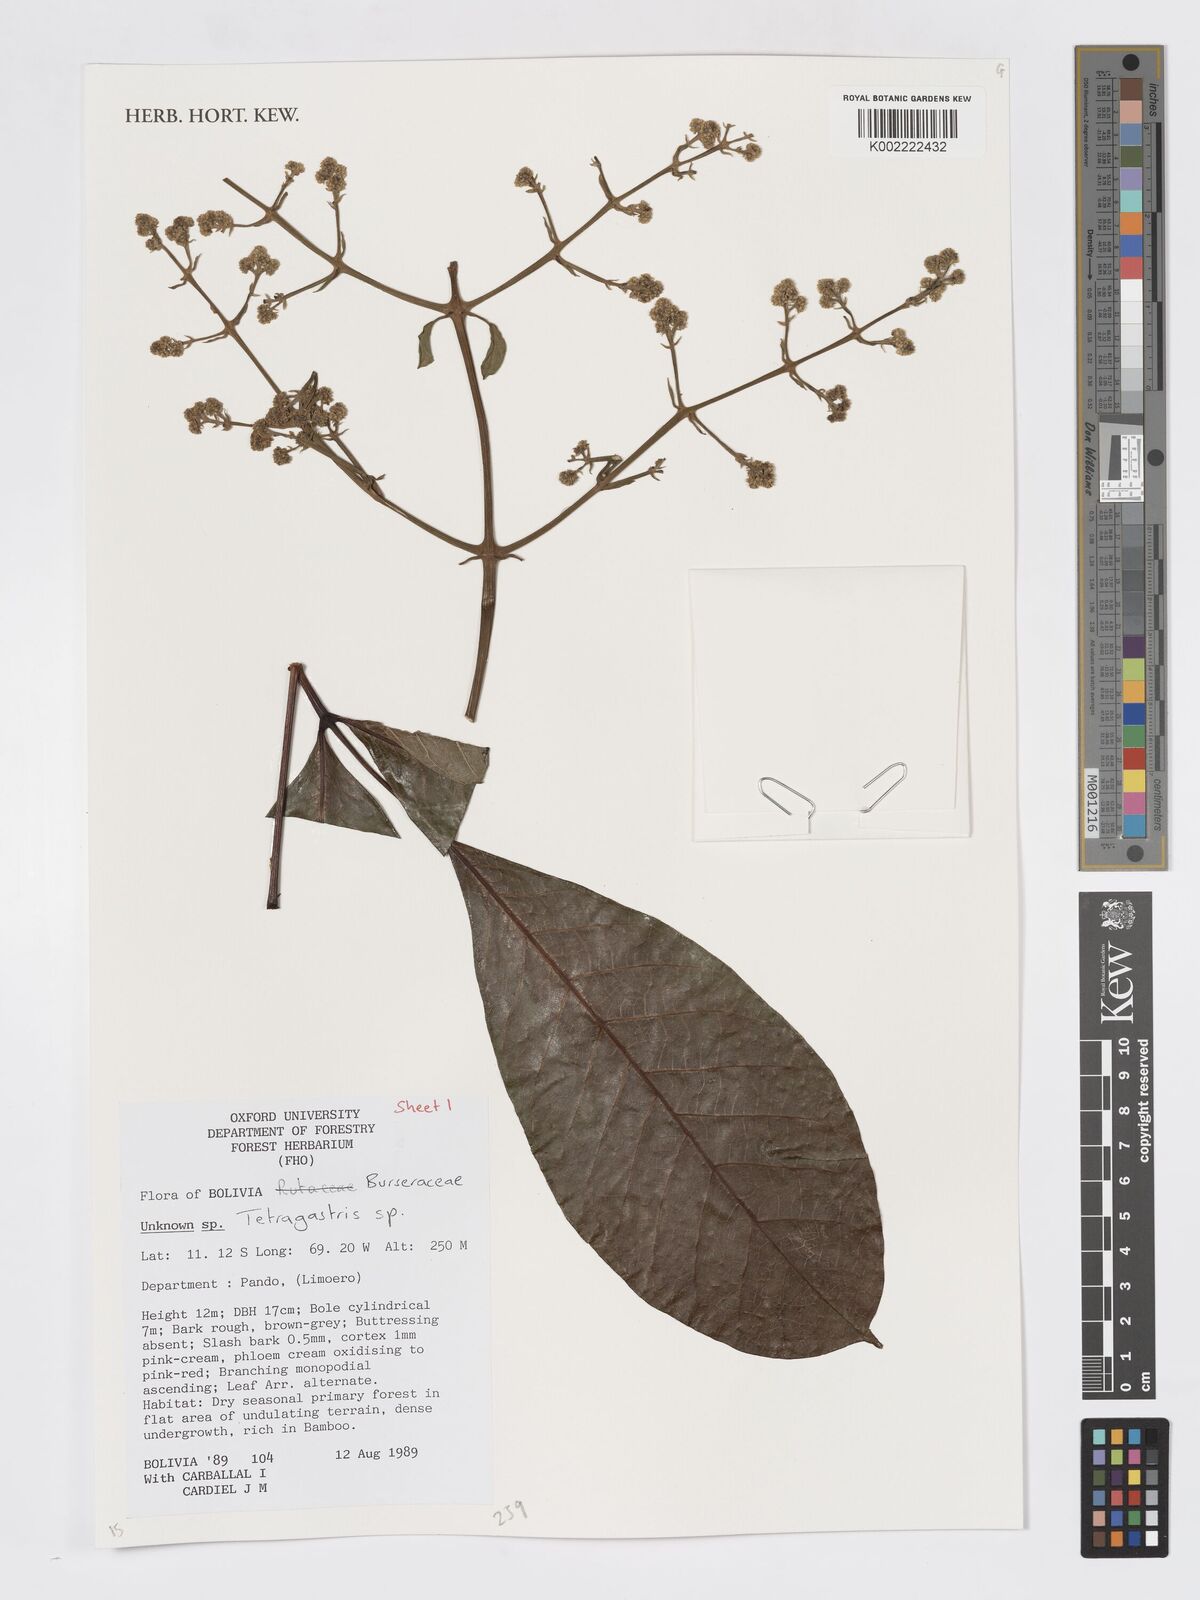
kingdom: Plantae
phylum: Tracheophyta
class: Magnoliopsida
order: Sapindales
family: Burseraceae
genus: Tetragastris
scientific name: Tetragastris
